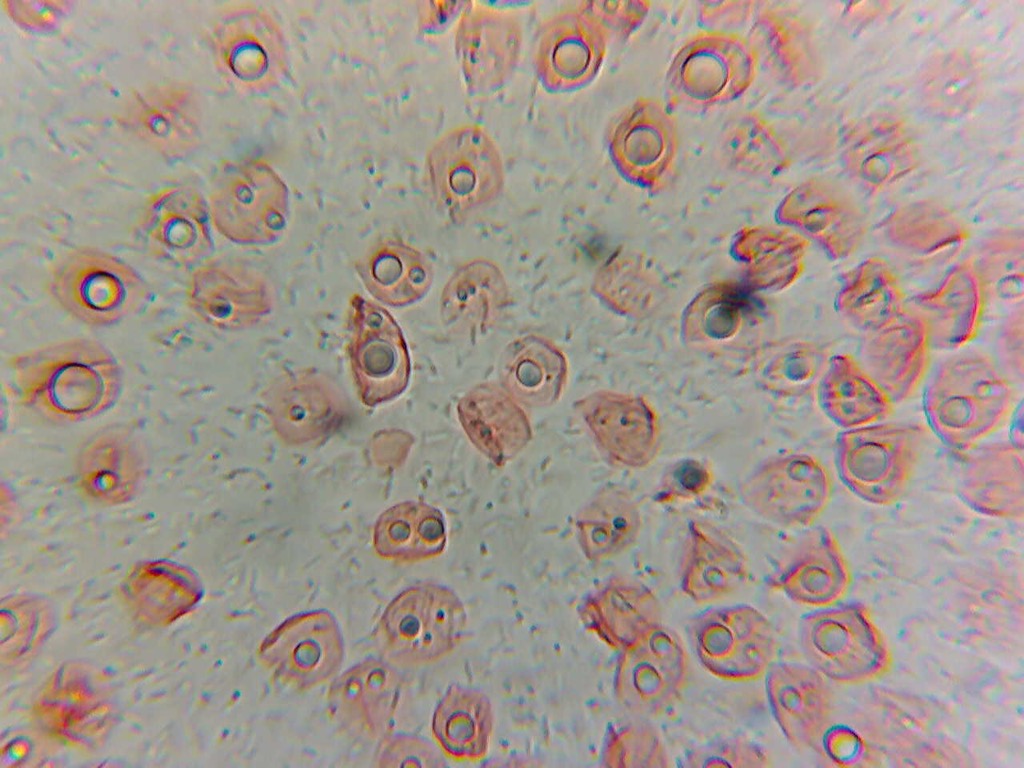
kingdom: Fungi
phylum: Basidiomycota
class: Agaricomycetes
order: Agaricales
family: Mycenaceae
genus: Mycena
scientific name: Mycena meliigena
